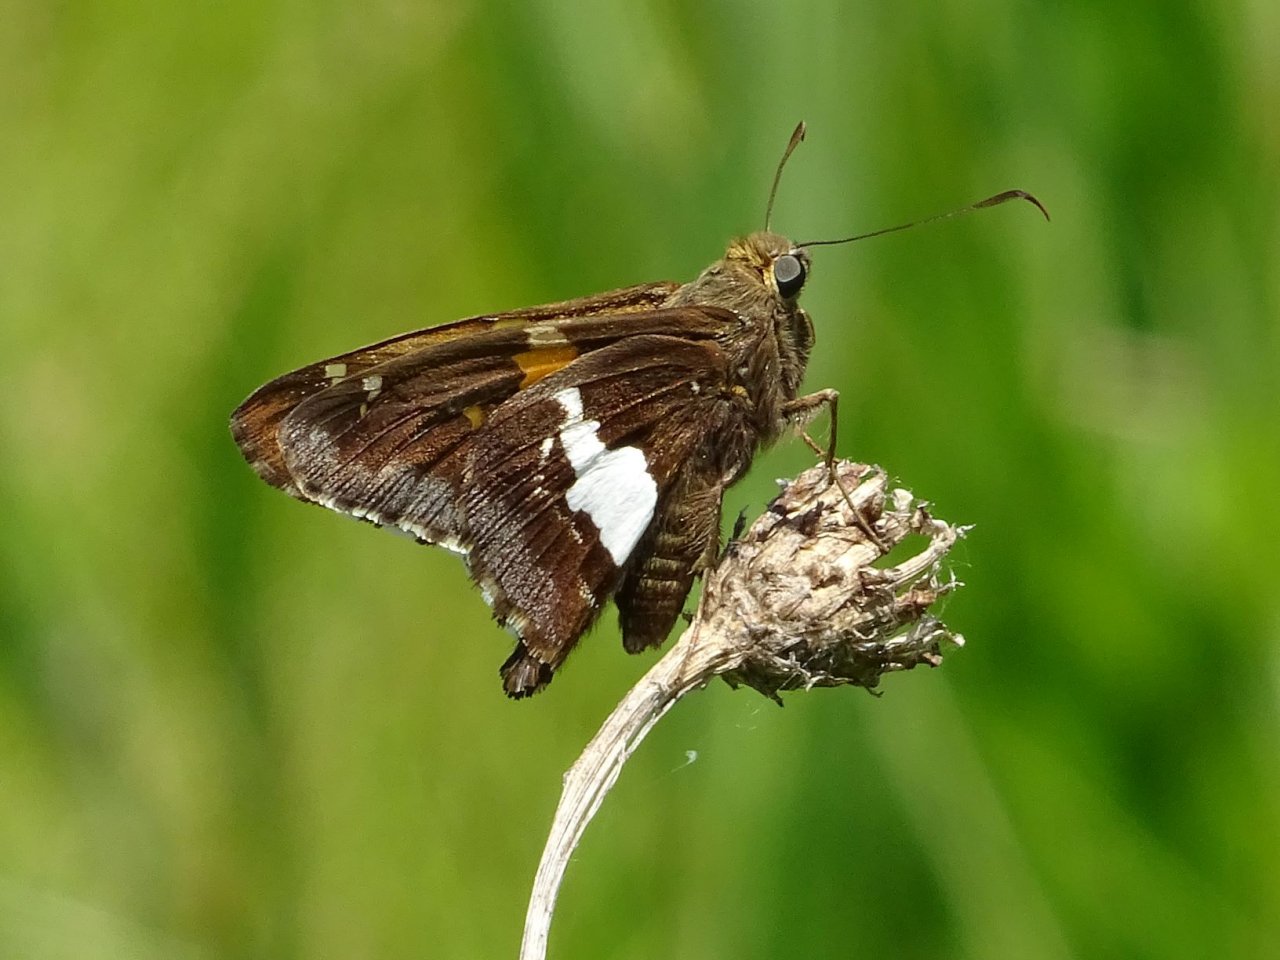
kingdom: Animalia
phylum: Arthropoda
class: Insecta
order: Lepidoptera
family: Hesperiidae
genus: Epargyreus
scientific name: Epargyreus clarus
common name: Silver-spotted Skipper
